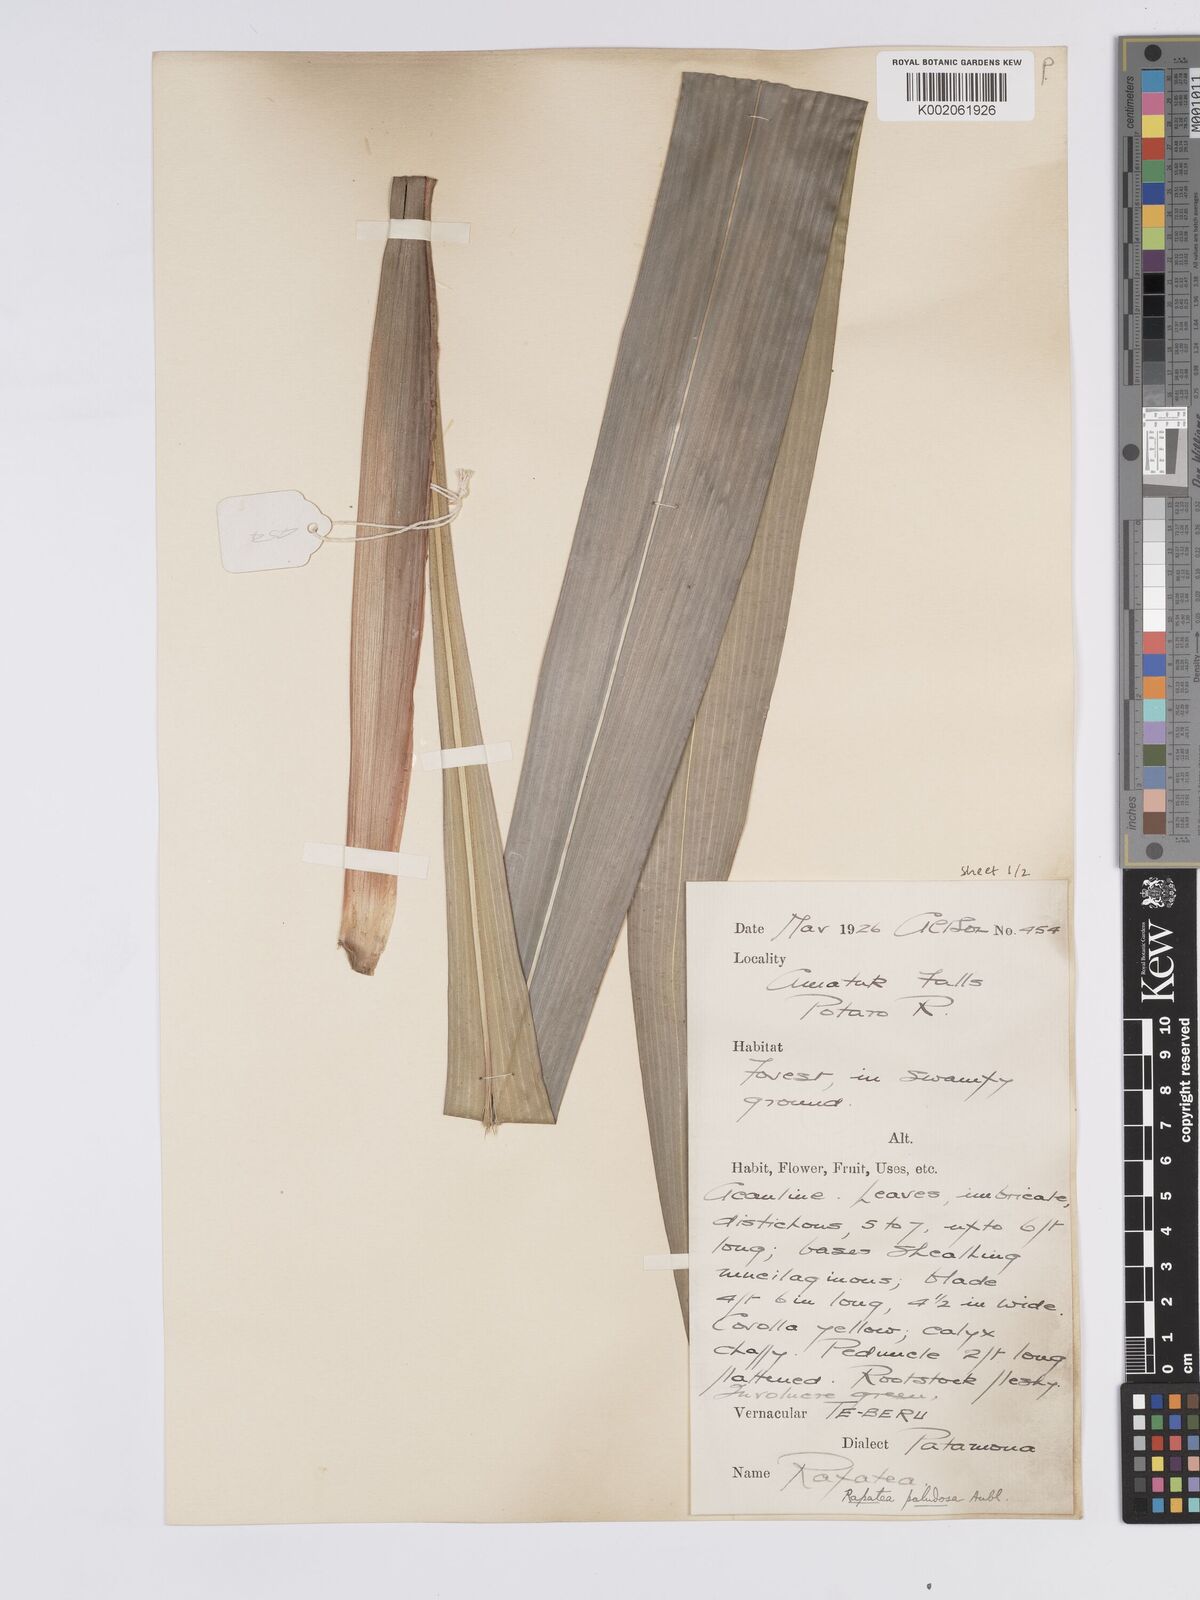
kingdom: Plantae
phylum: Tracheophyta
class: Liliopsida
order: Poales
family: Rapateaceae
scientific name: Rapateaceae
